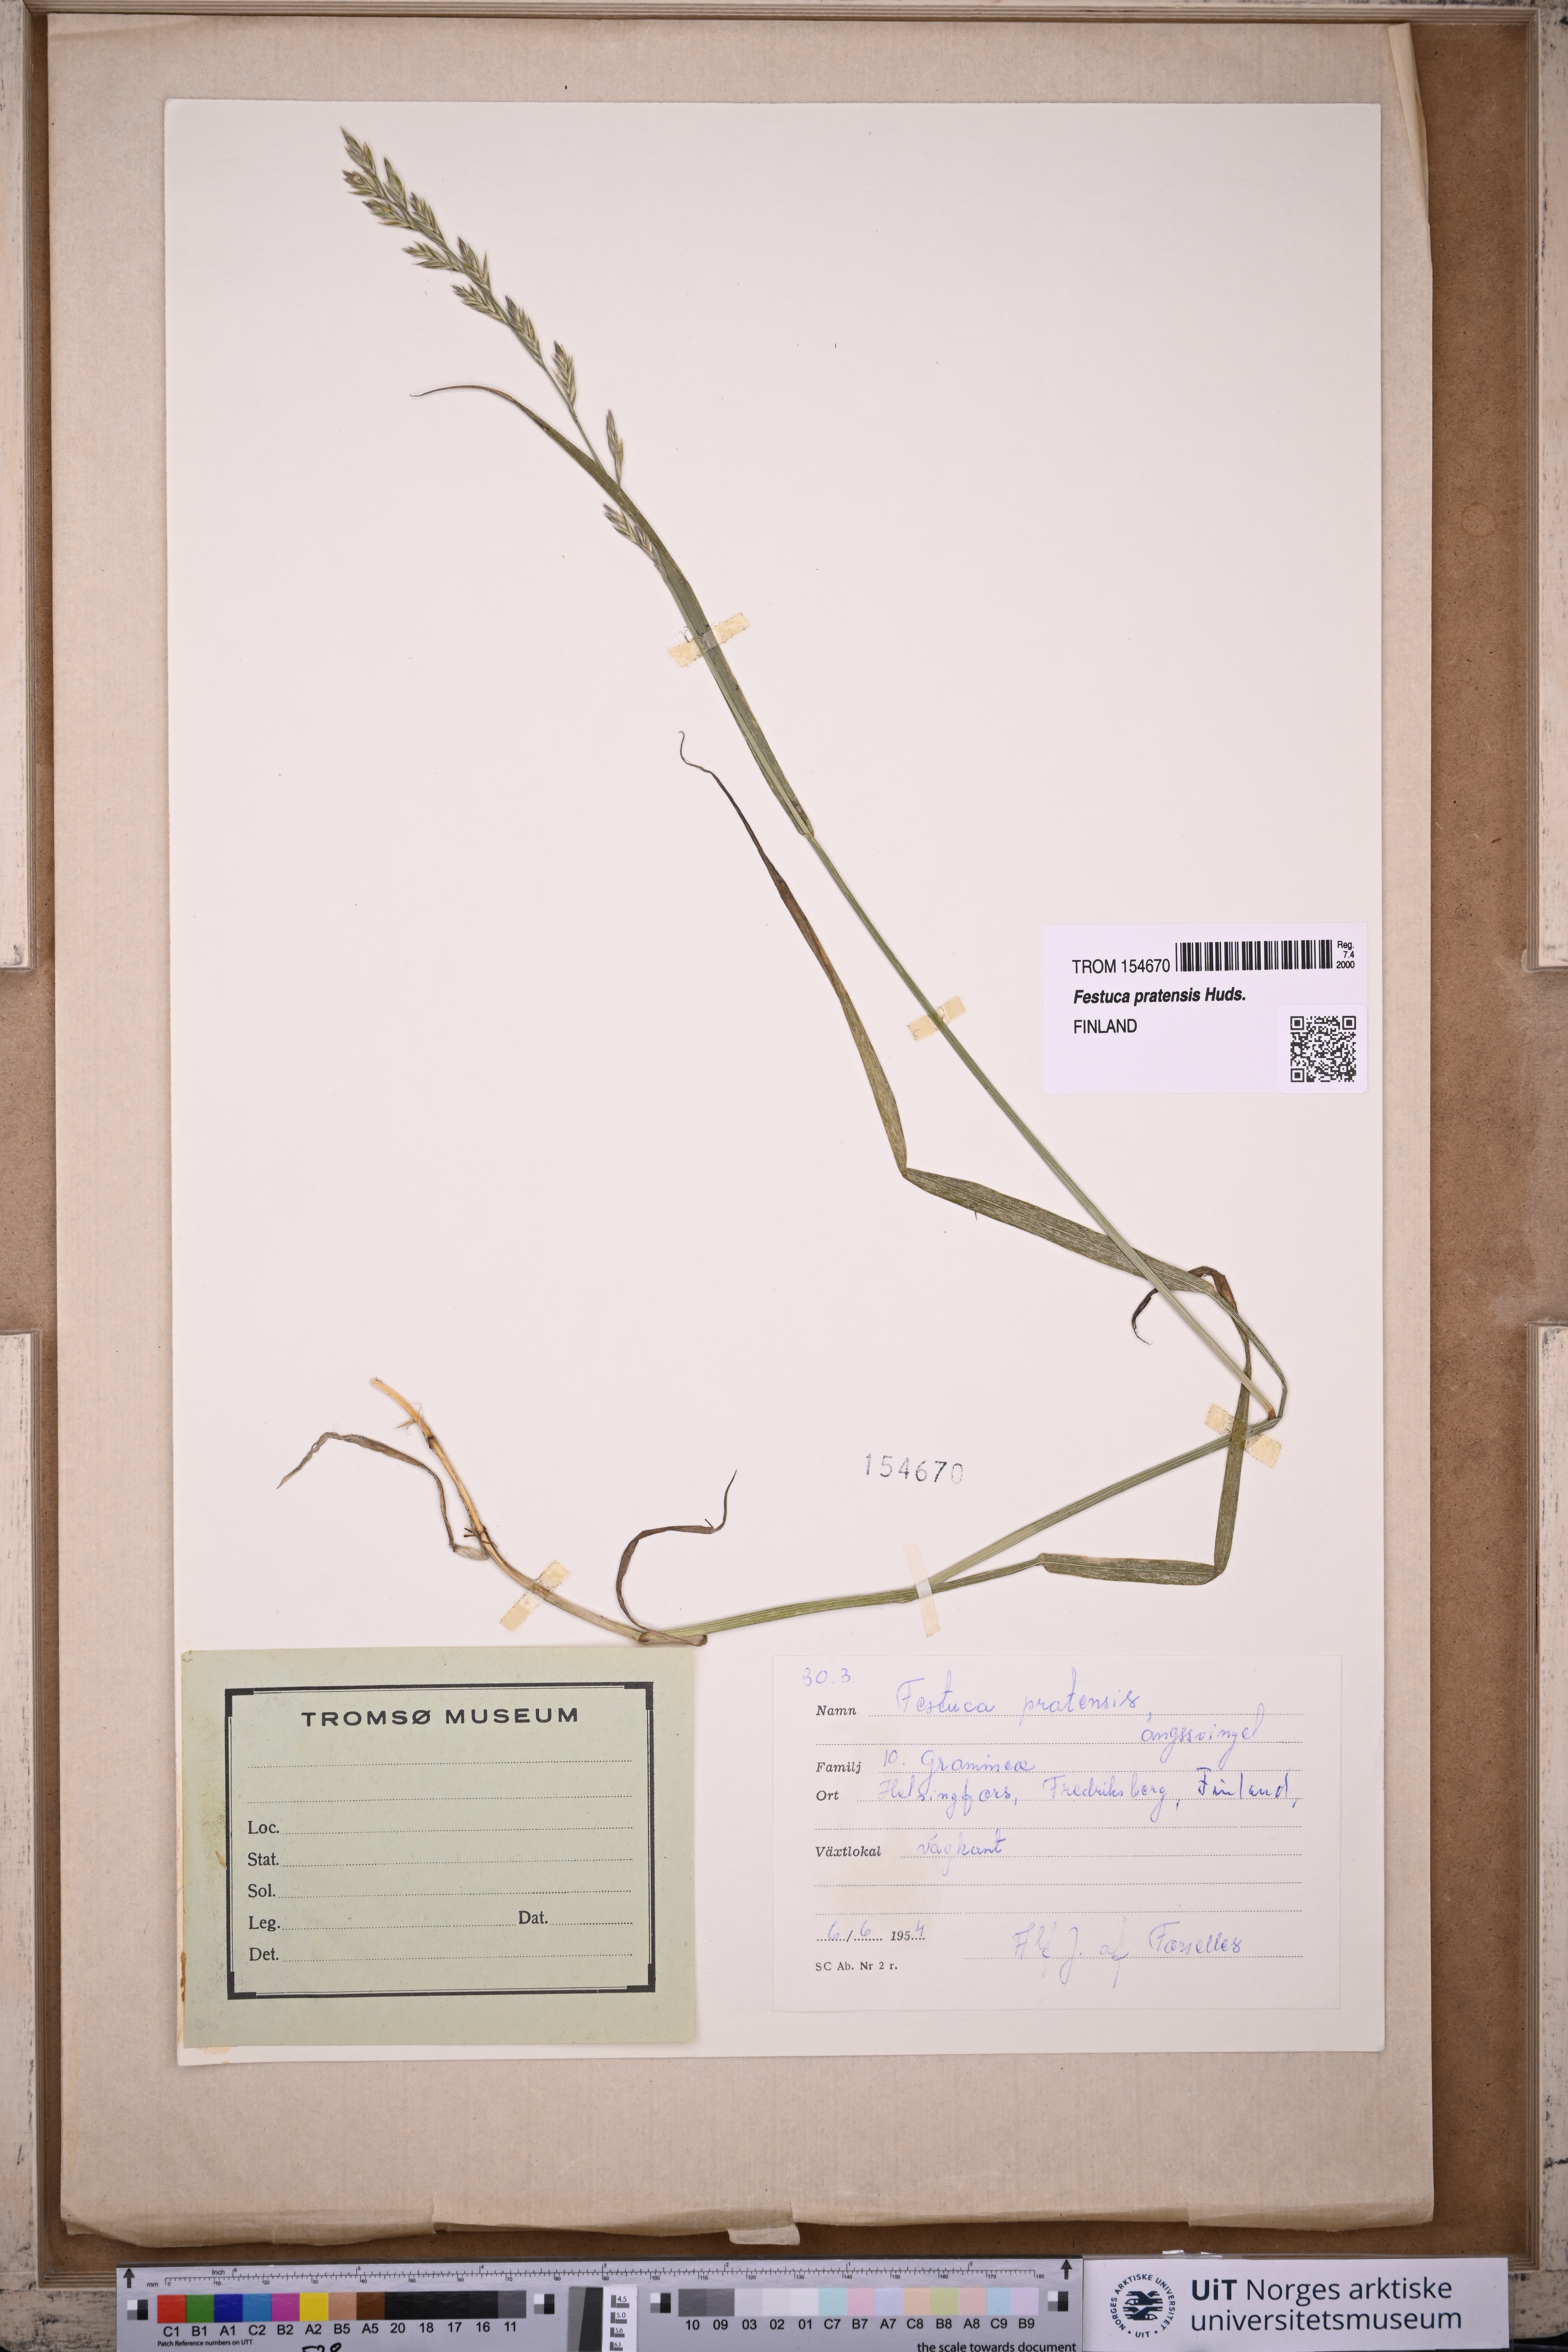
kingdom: Plantae
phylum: Tracheophyta
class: Liliopsida
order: Poales
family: Poaceae
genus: Lolium
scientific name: Lolium pratense
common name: Dover grass
